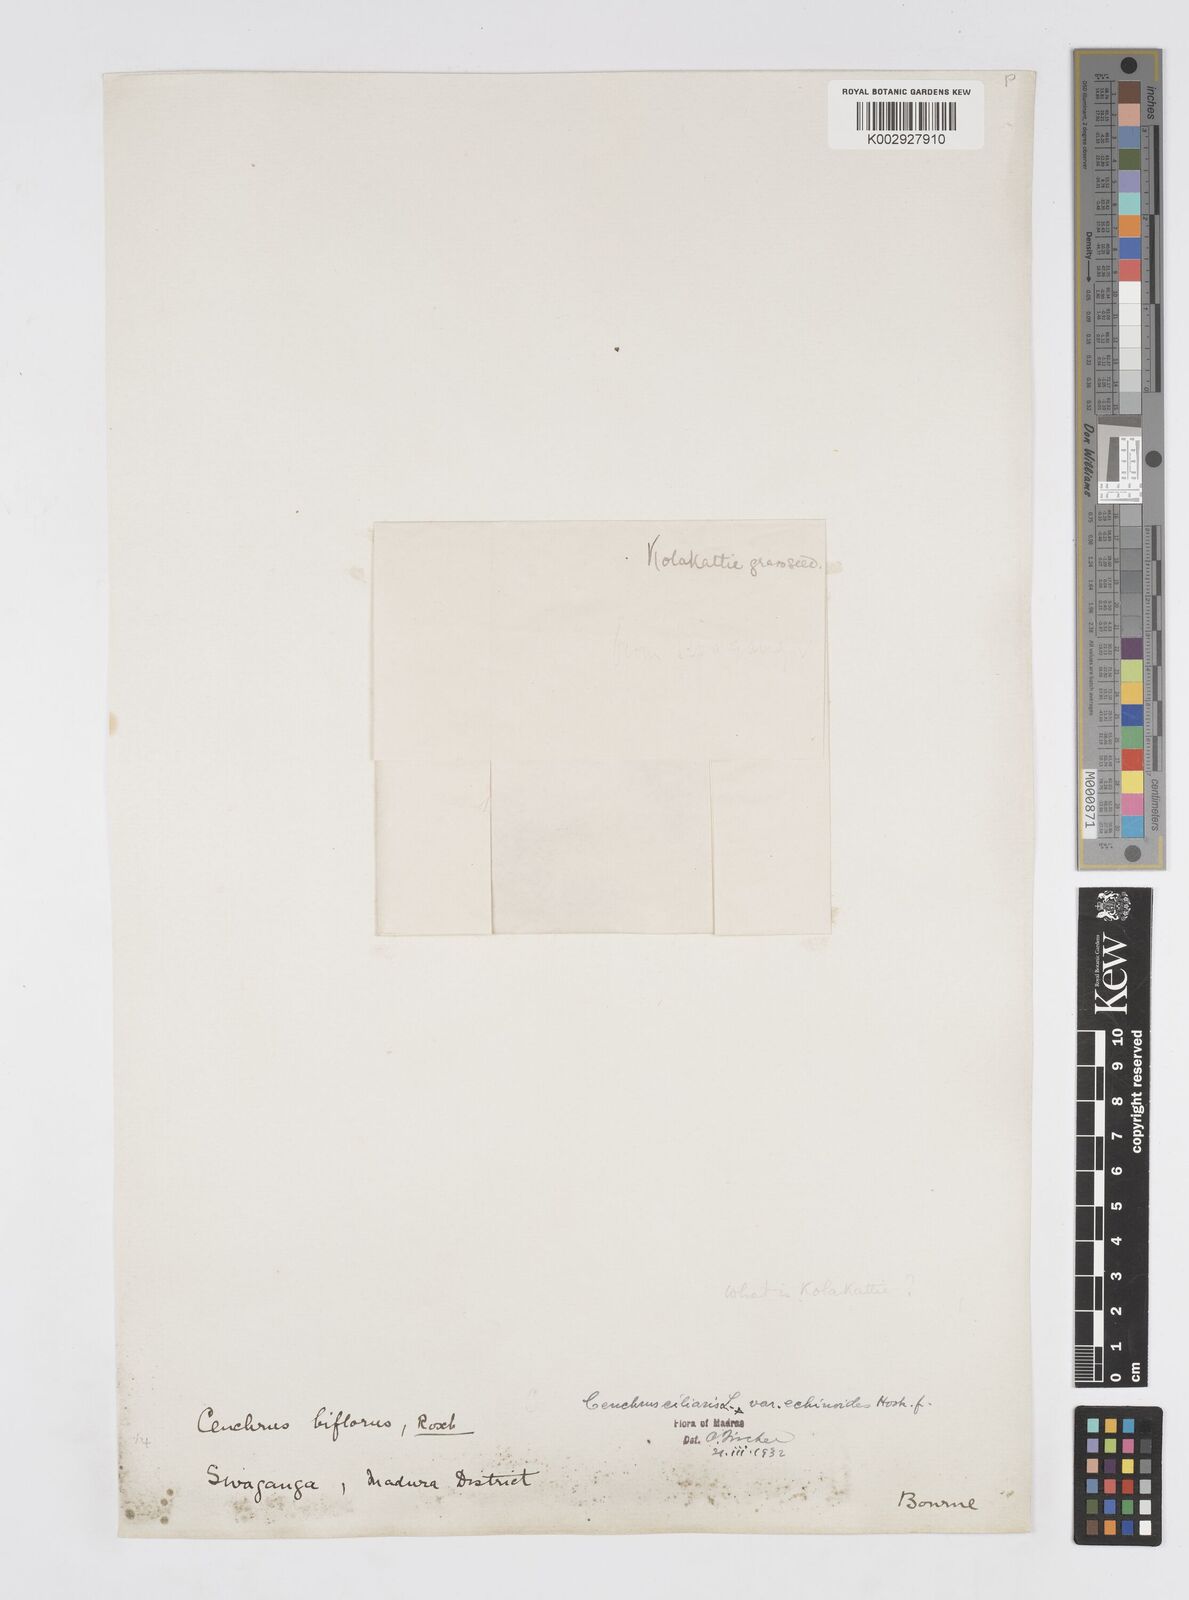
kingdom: Plantae
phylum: Tracheophyta
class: Liliopsida
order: Poales
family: Poaceae
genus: Cenchrus
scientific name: Cenchrus pennisetiformis
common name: Cloncurry
